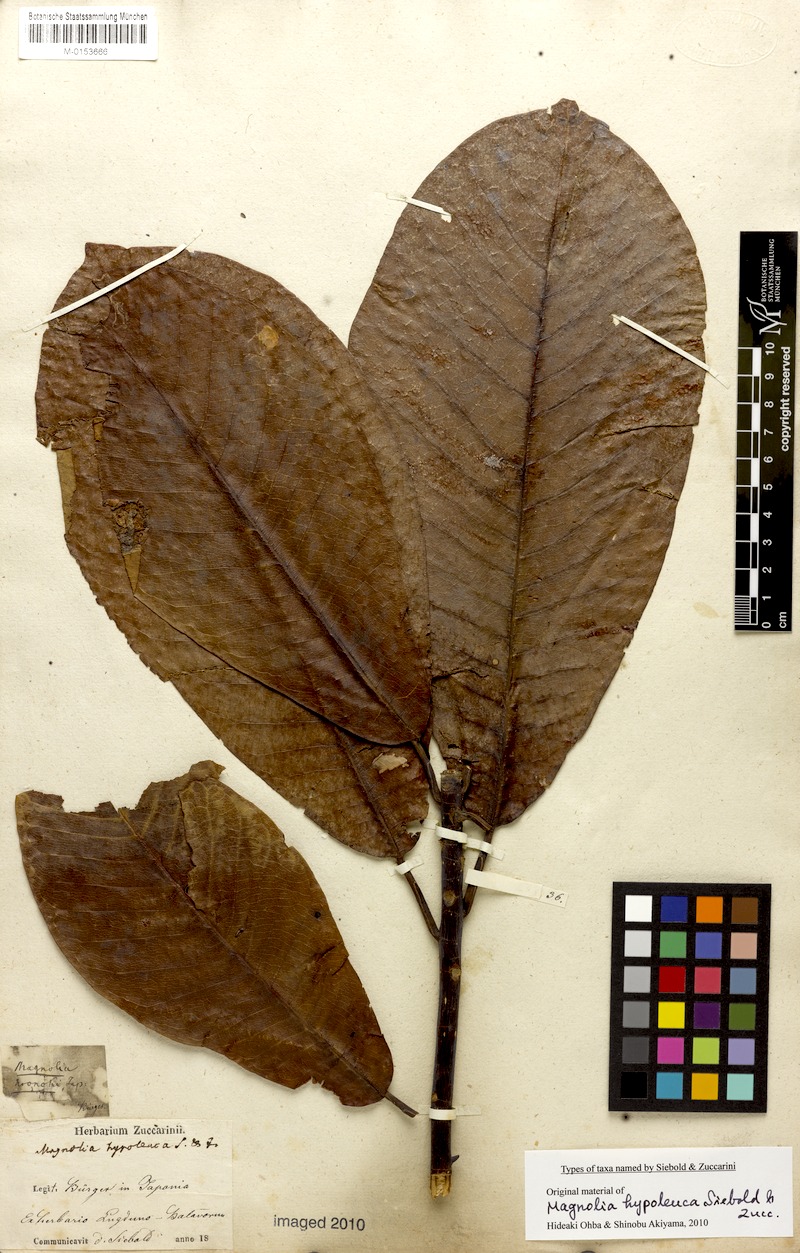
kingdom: Plantae
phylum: Tracheophyta
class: Magnoliopsida
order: Magnoliales
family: Magnoliaceae
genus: Magnolia
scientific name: Magnolia obovata
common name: Japanese whitebark magnolia
